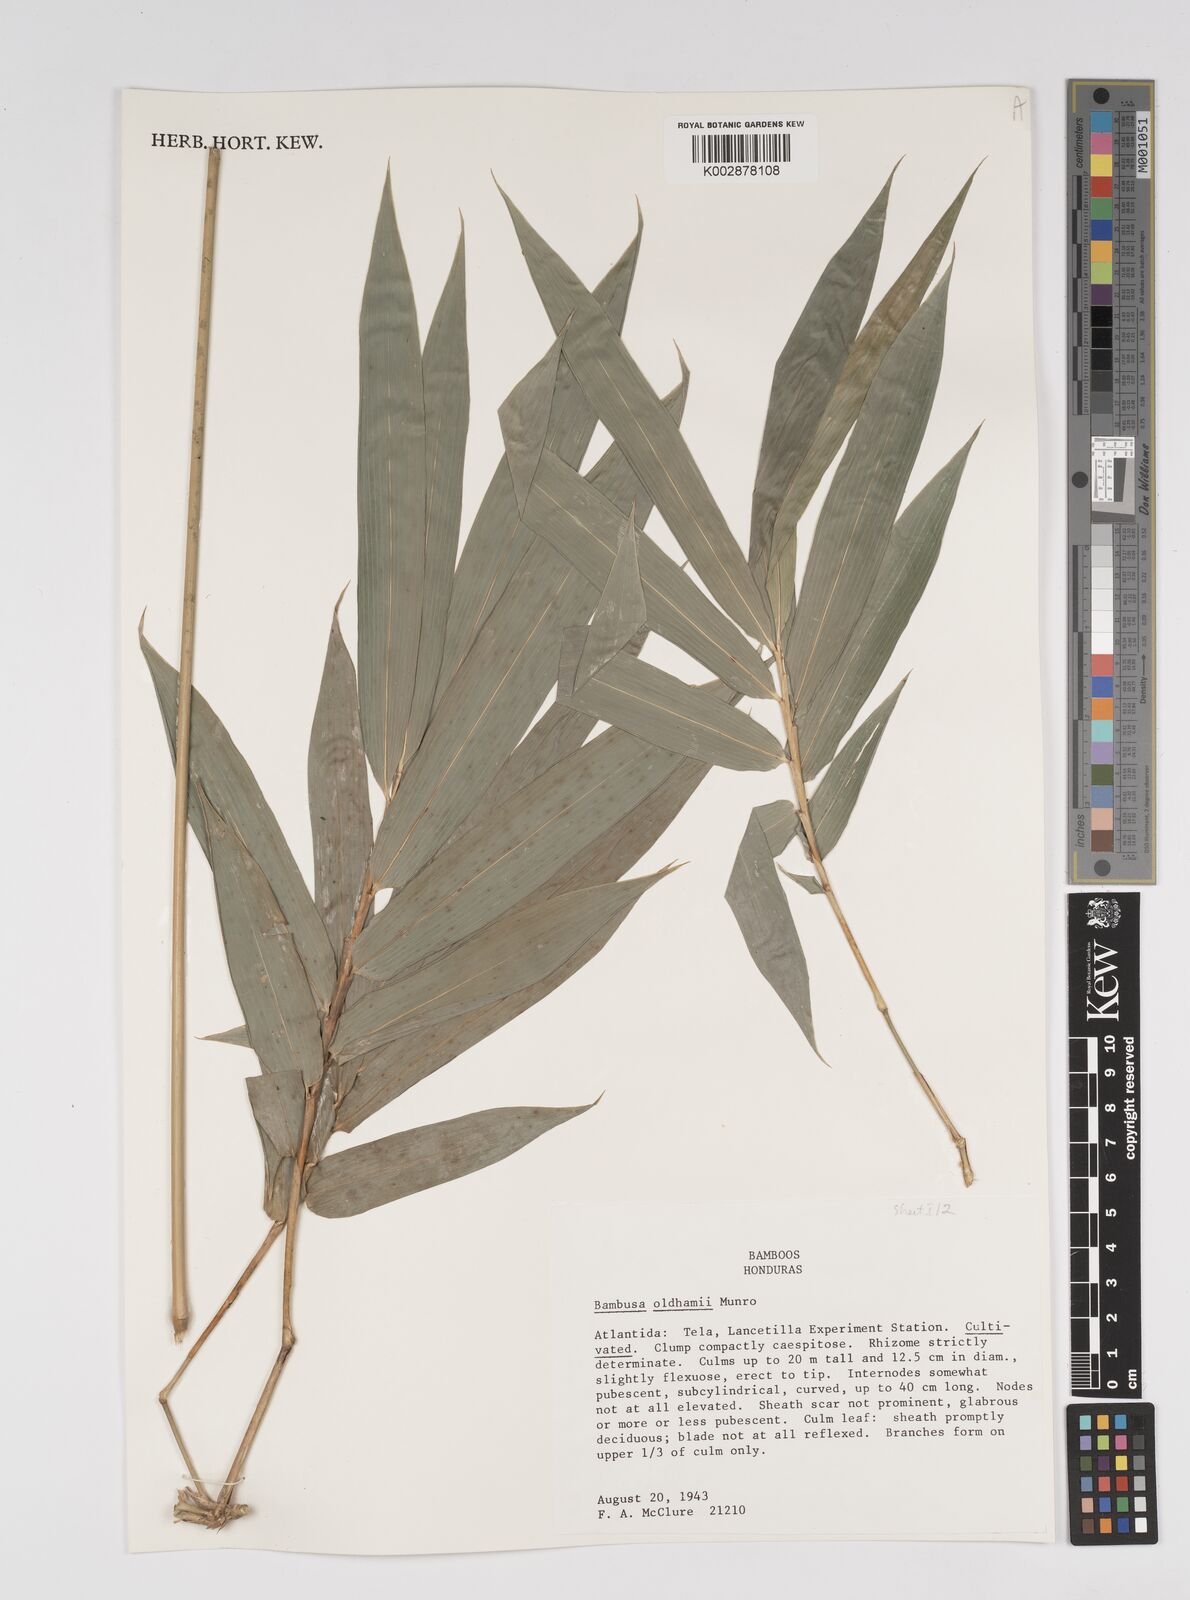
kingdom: Plantae
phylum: Tracheophyta
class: Liliopsida
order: Poales
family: Poaceae
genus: Bambusa
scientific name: Bambusa oldhamii
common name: Giant timber bamboo
